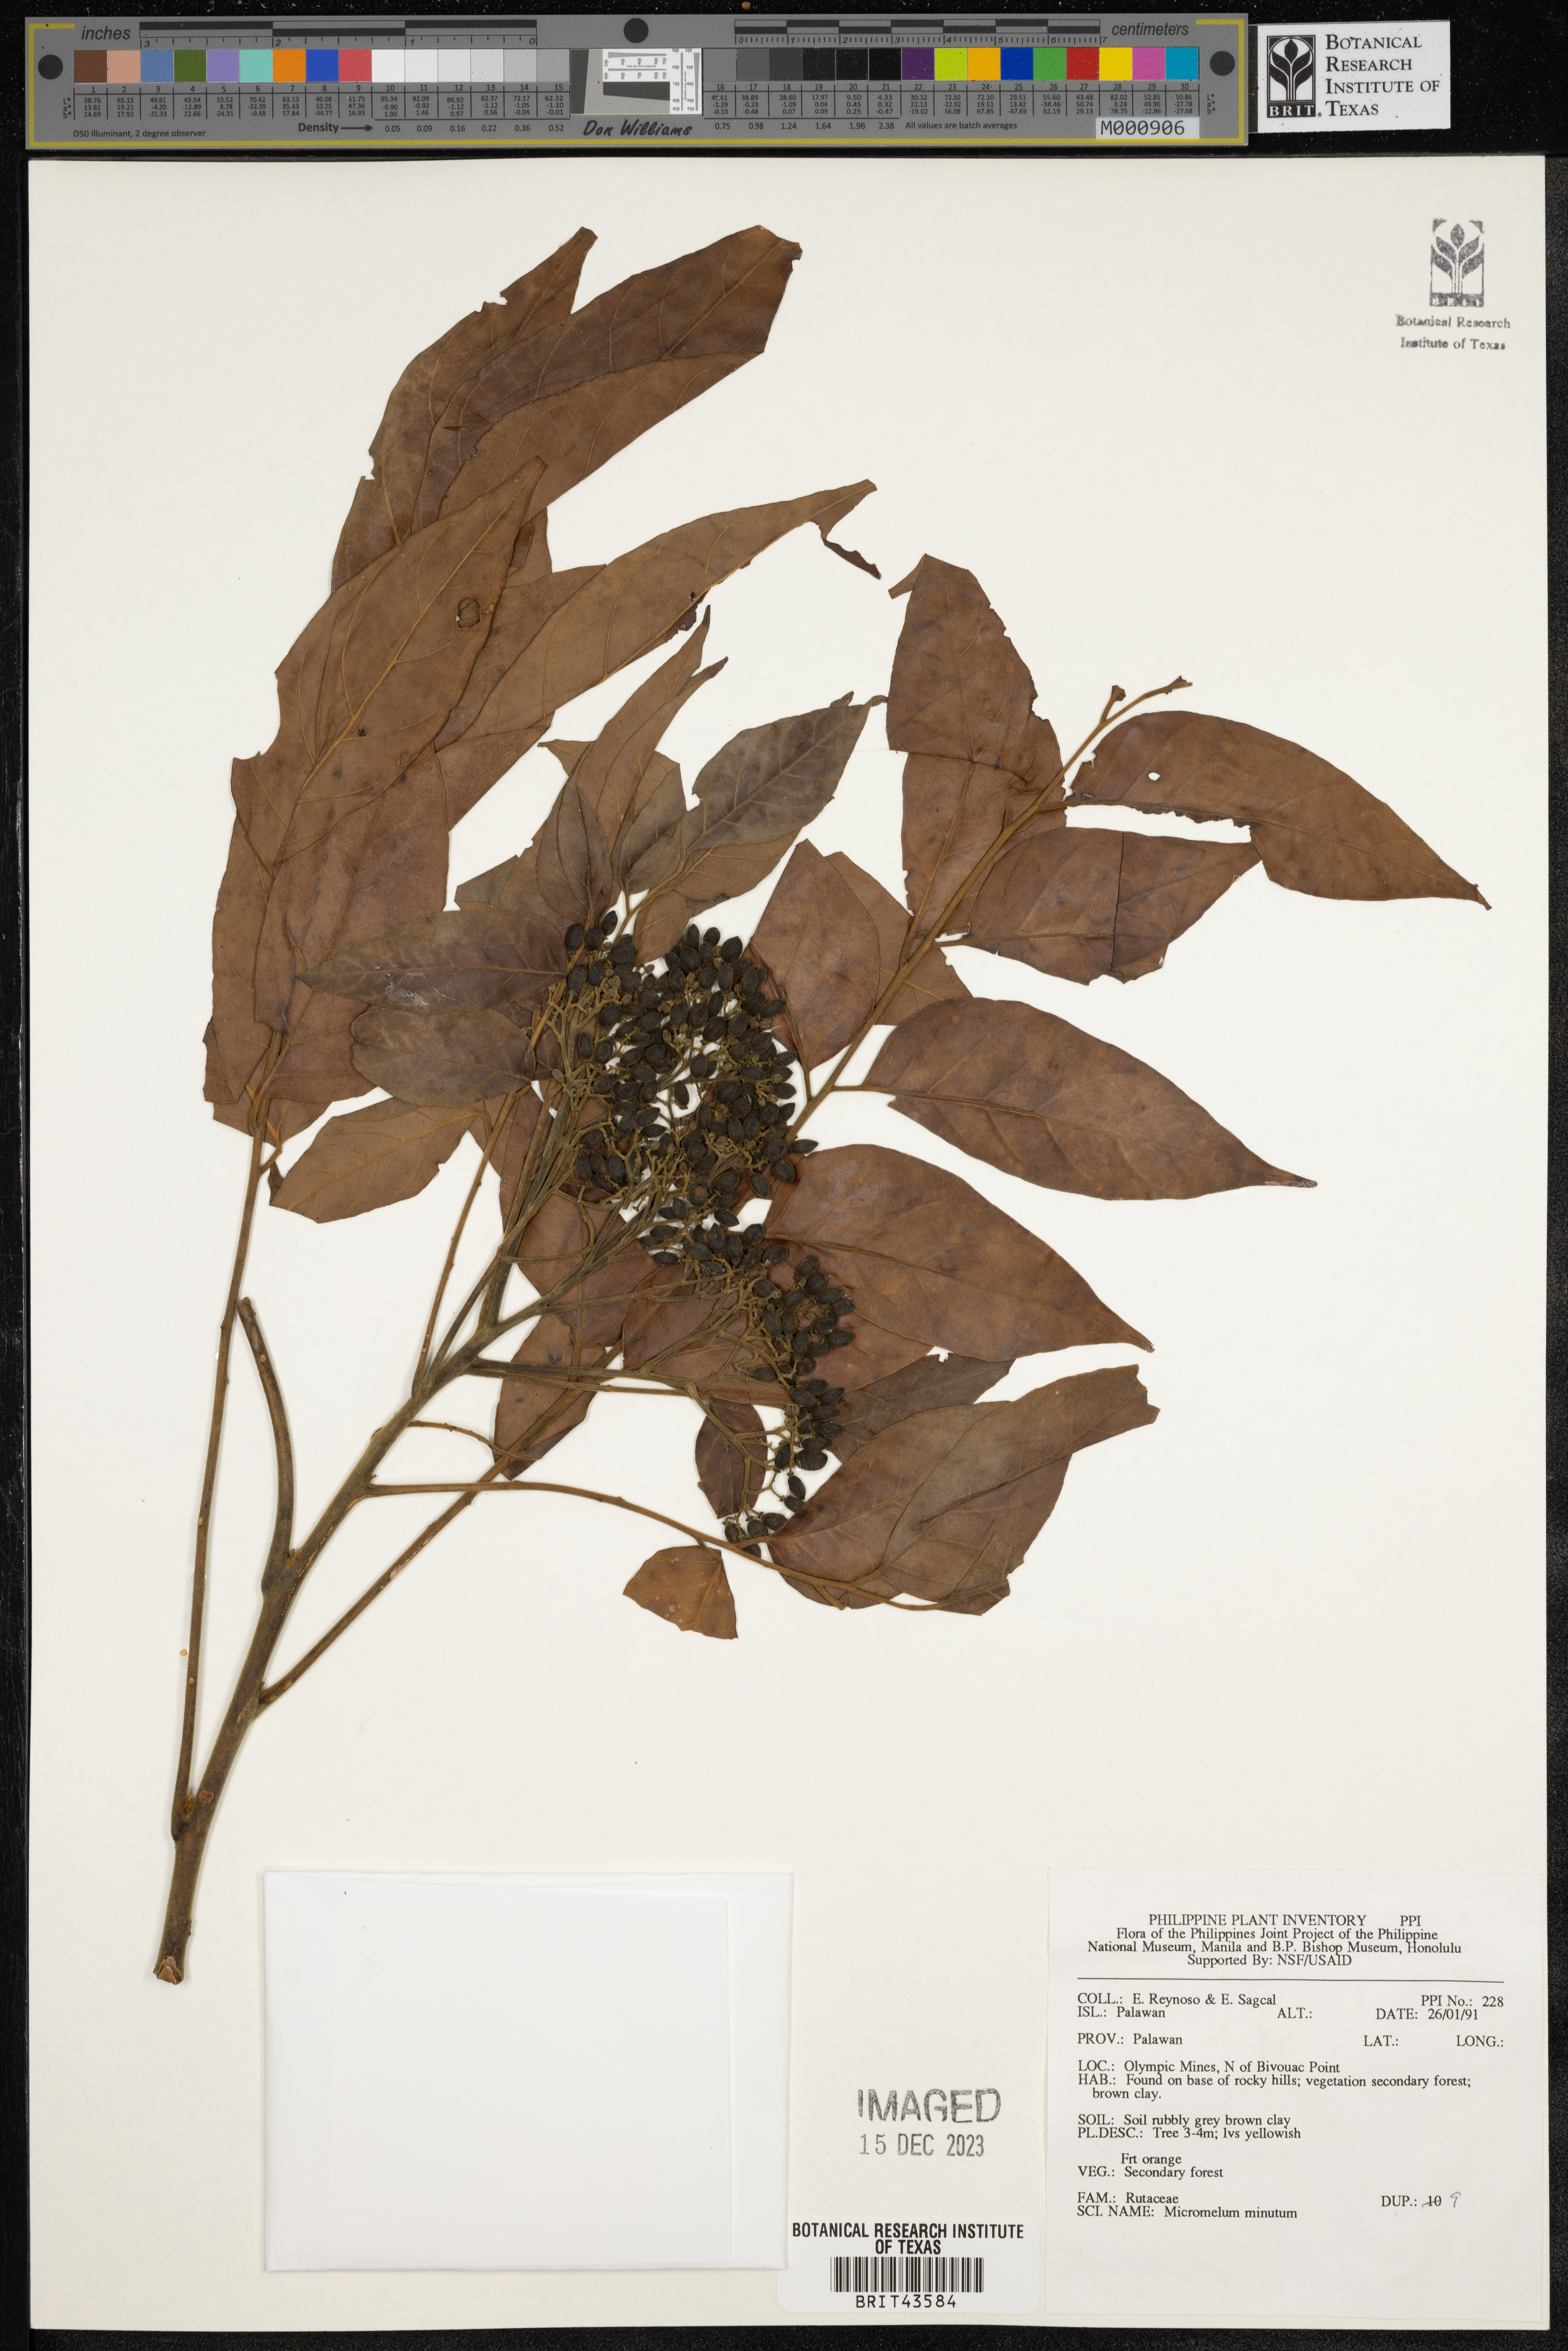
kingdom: Plantae
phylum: Tracheophyta
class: Magnoliopsida
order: Sapindales
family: Rutaceae
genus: Micromelum
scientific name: Micromelum minutum
